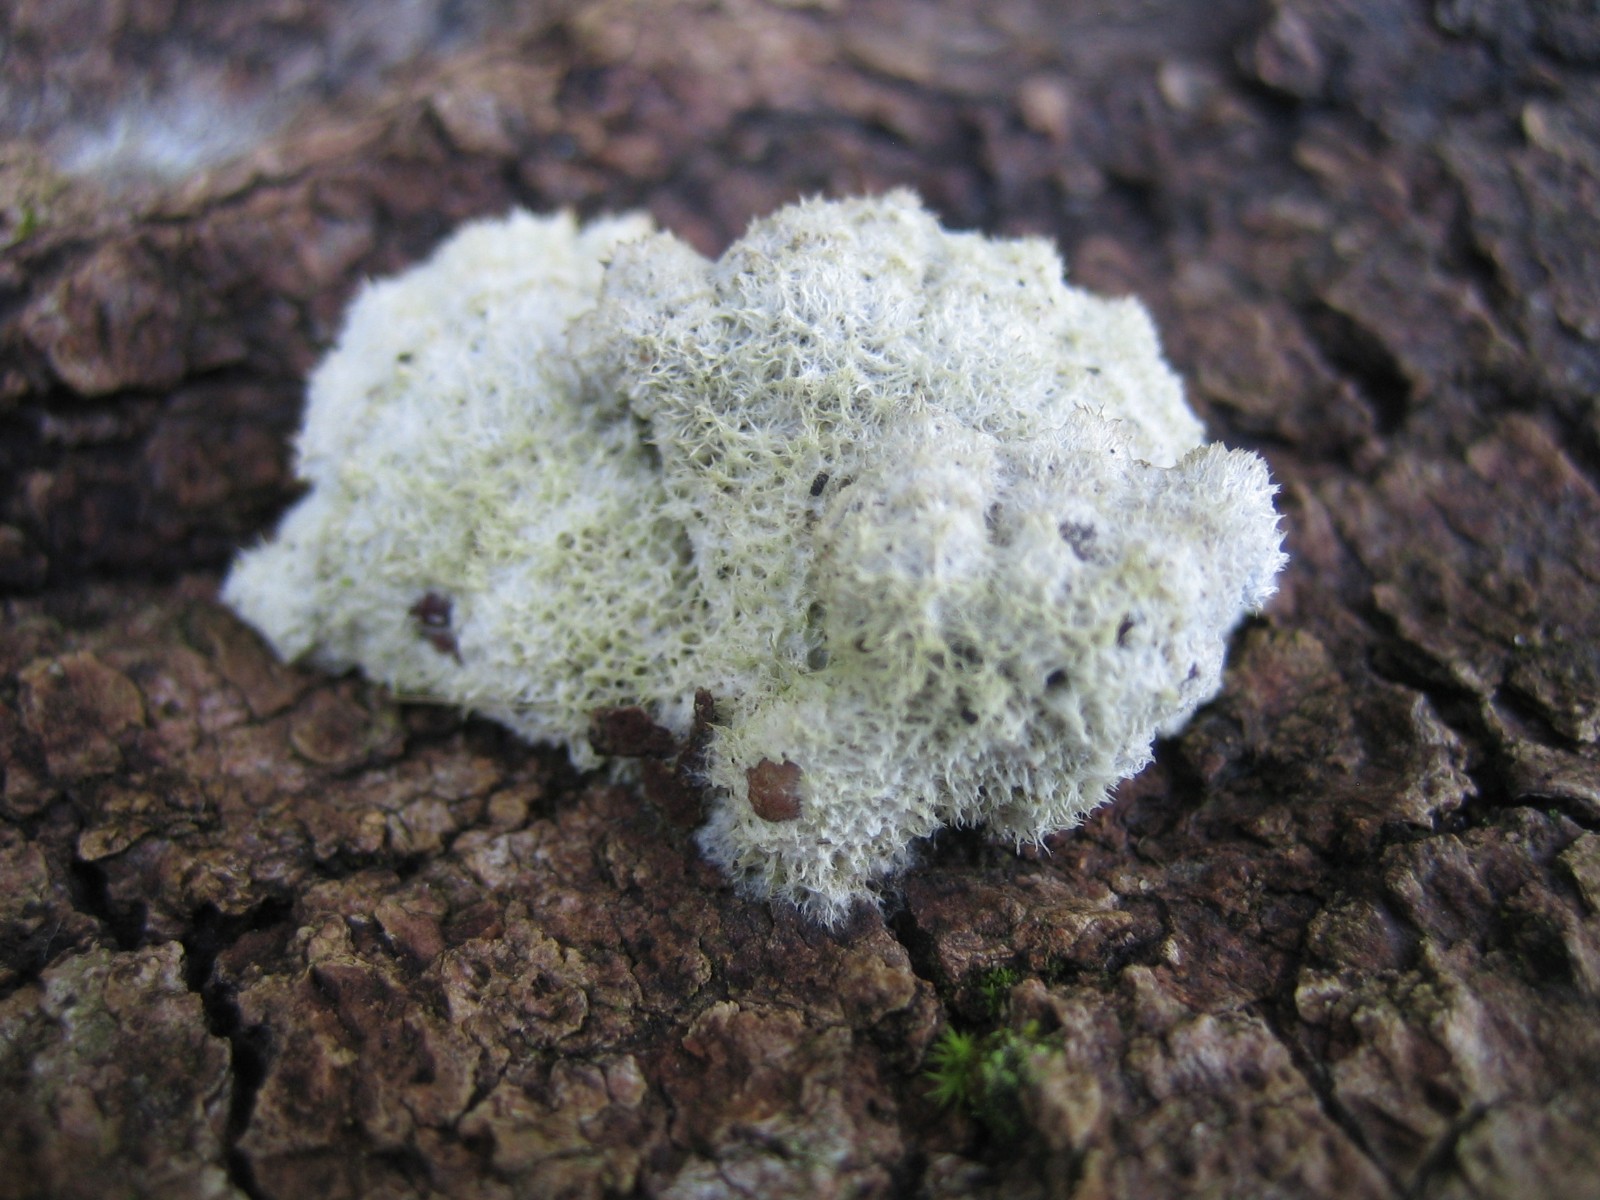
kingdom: Fungi
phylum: Basidiomycota
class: Agaricomycetes
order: Agaricales
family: Schizophyllaceae
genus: Schizophyllum
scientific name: Schizophyllum commune
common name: kløvblad
